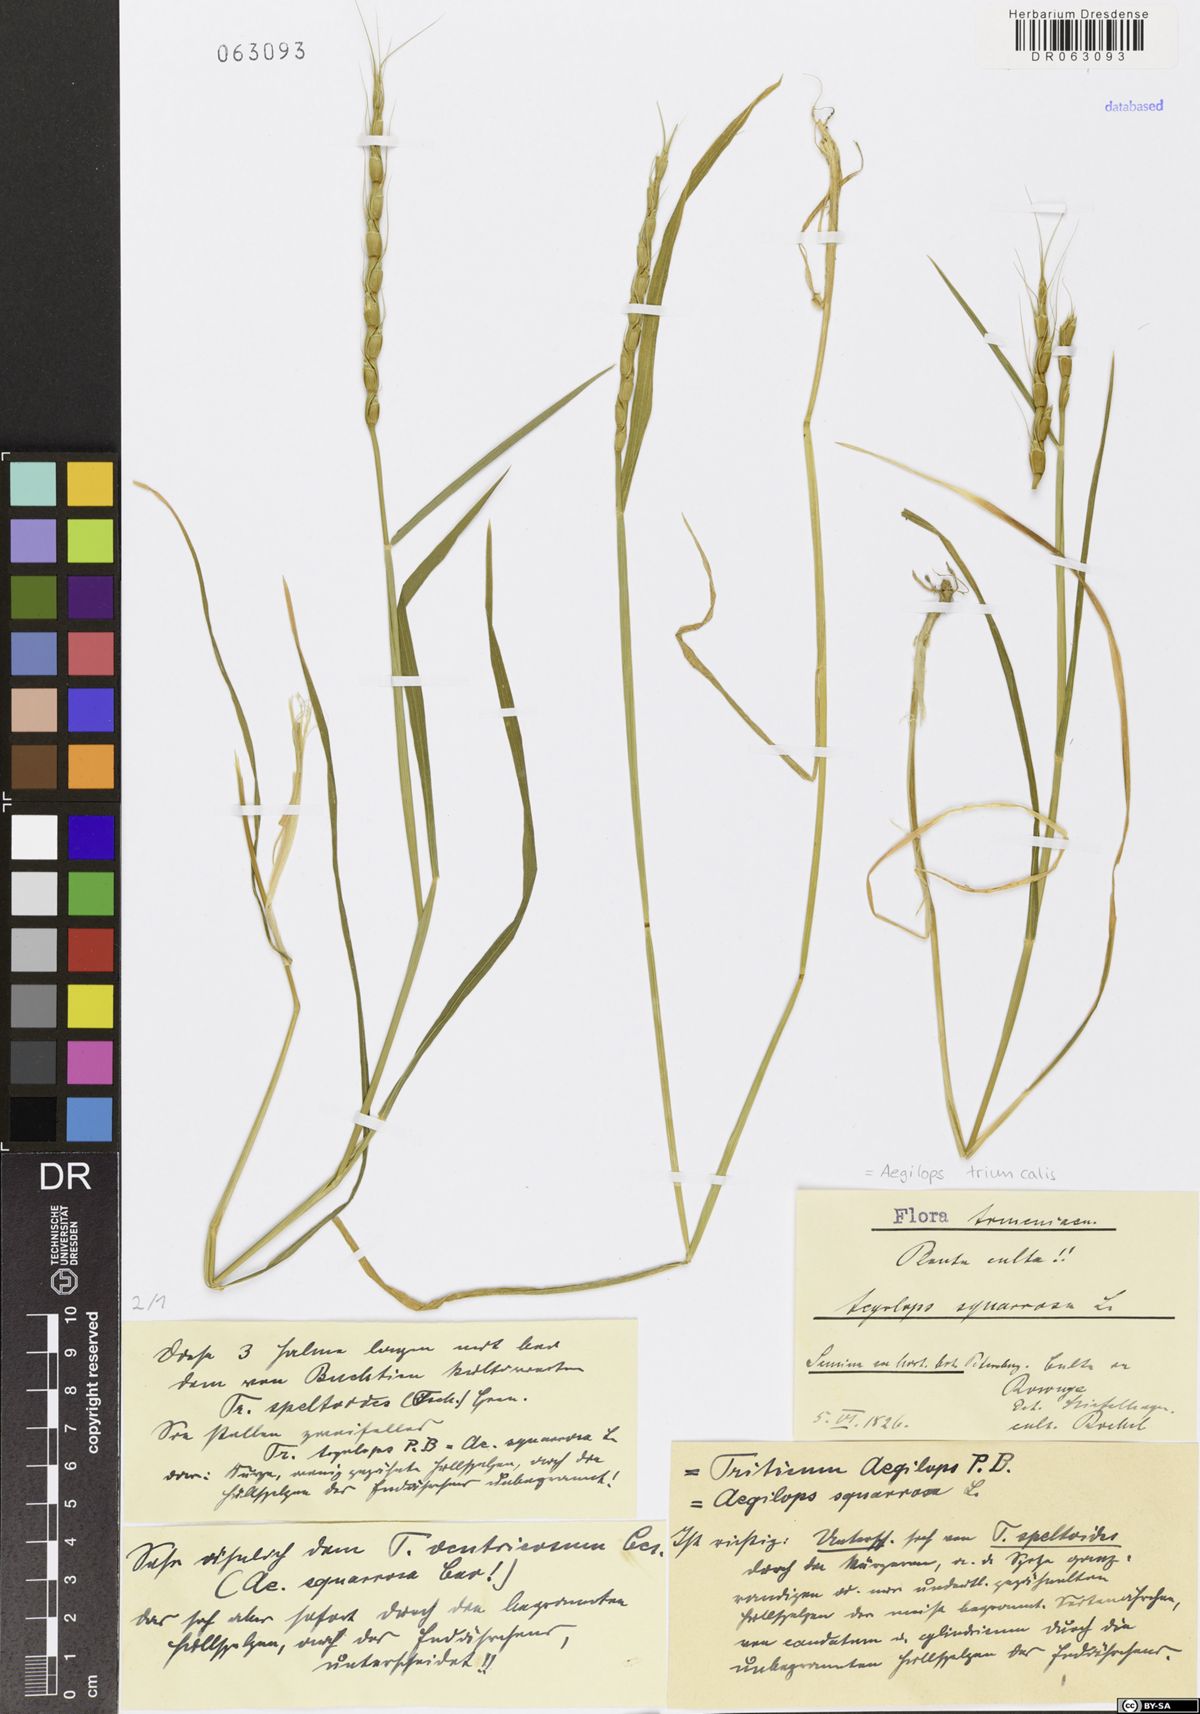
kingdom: Plantae
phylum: Tracheophyta
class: Liliopsida
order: Poales
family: Poaceae
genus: Aegilops
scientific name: Aegilops triuncialis
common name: Barb goat grass
